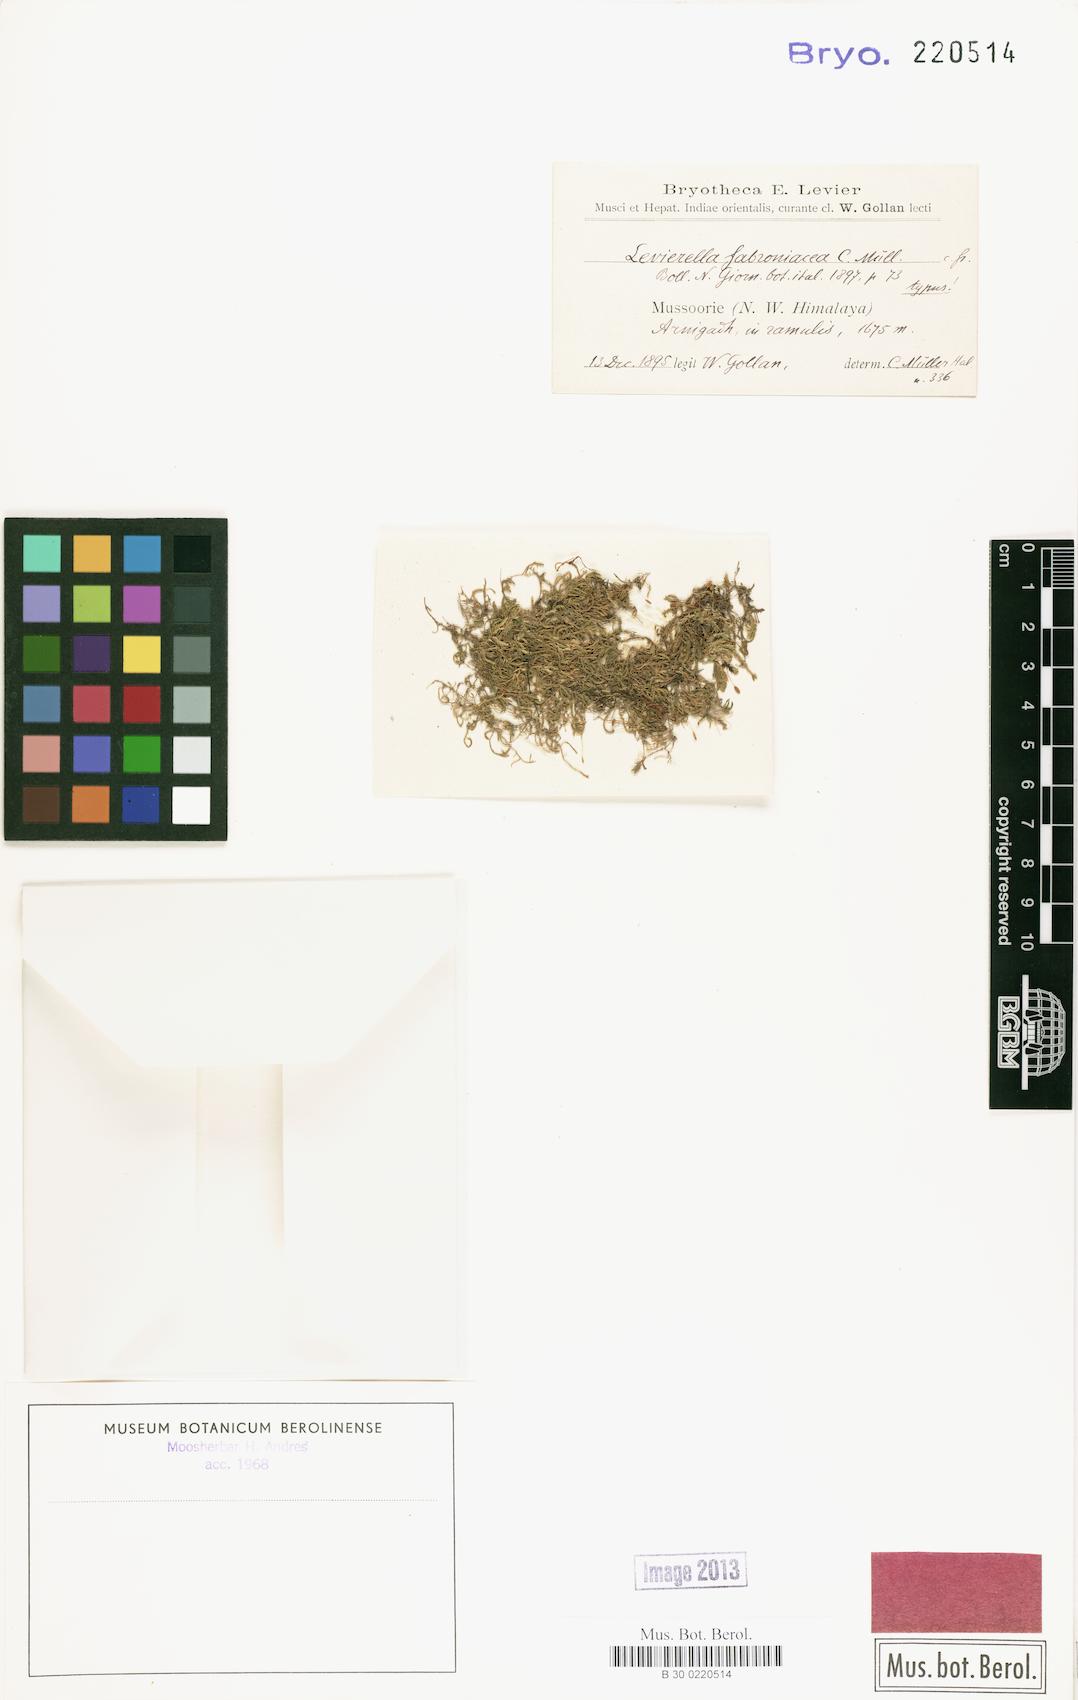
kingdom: Plantae
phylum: Bryophyta
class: Bryopsida
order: Hypnales
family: Fabroniaceae
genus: Levierella
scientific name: Levierella neckeroides
